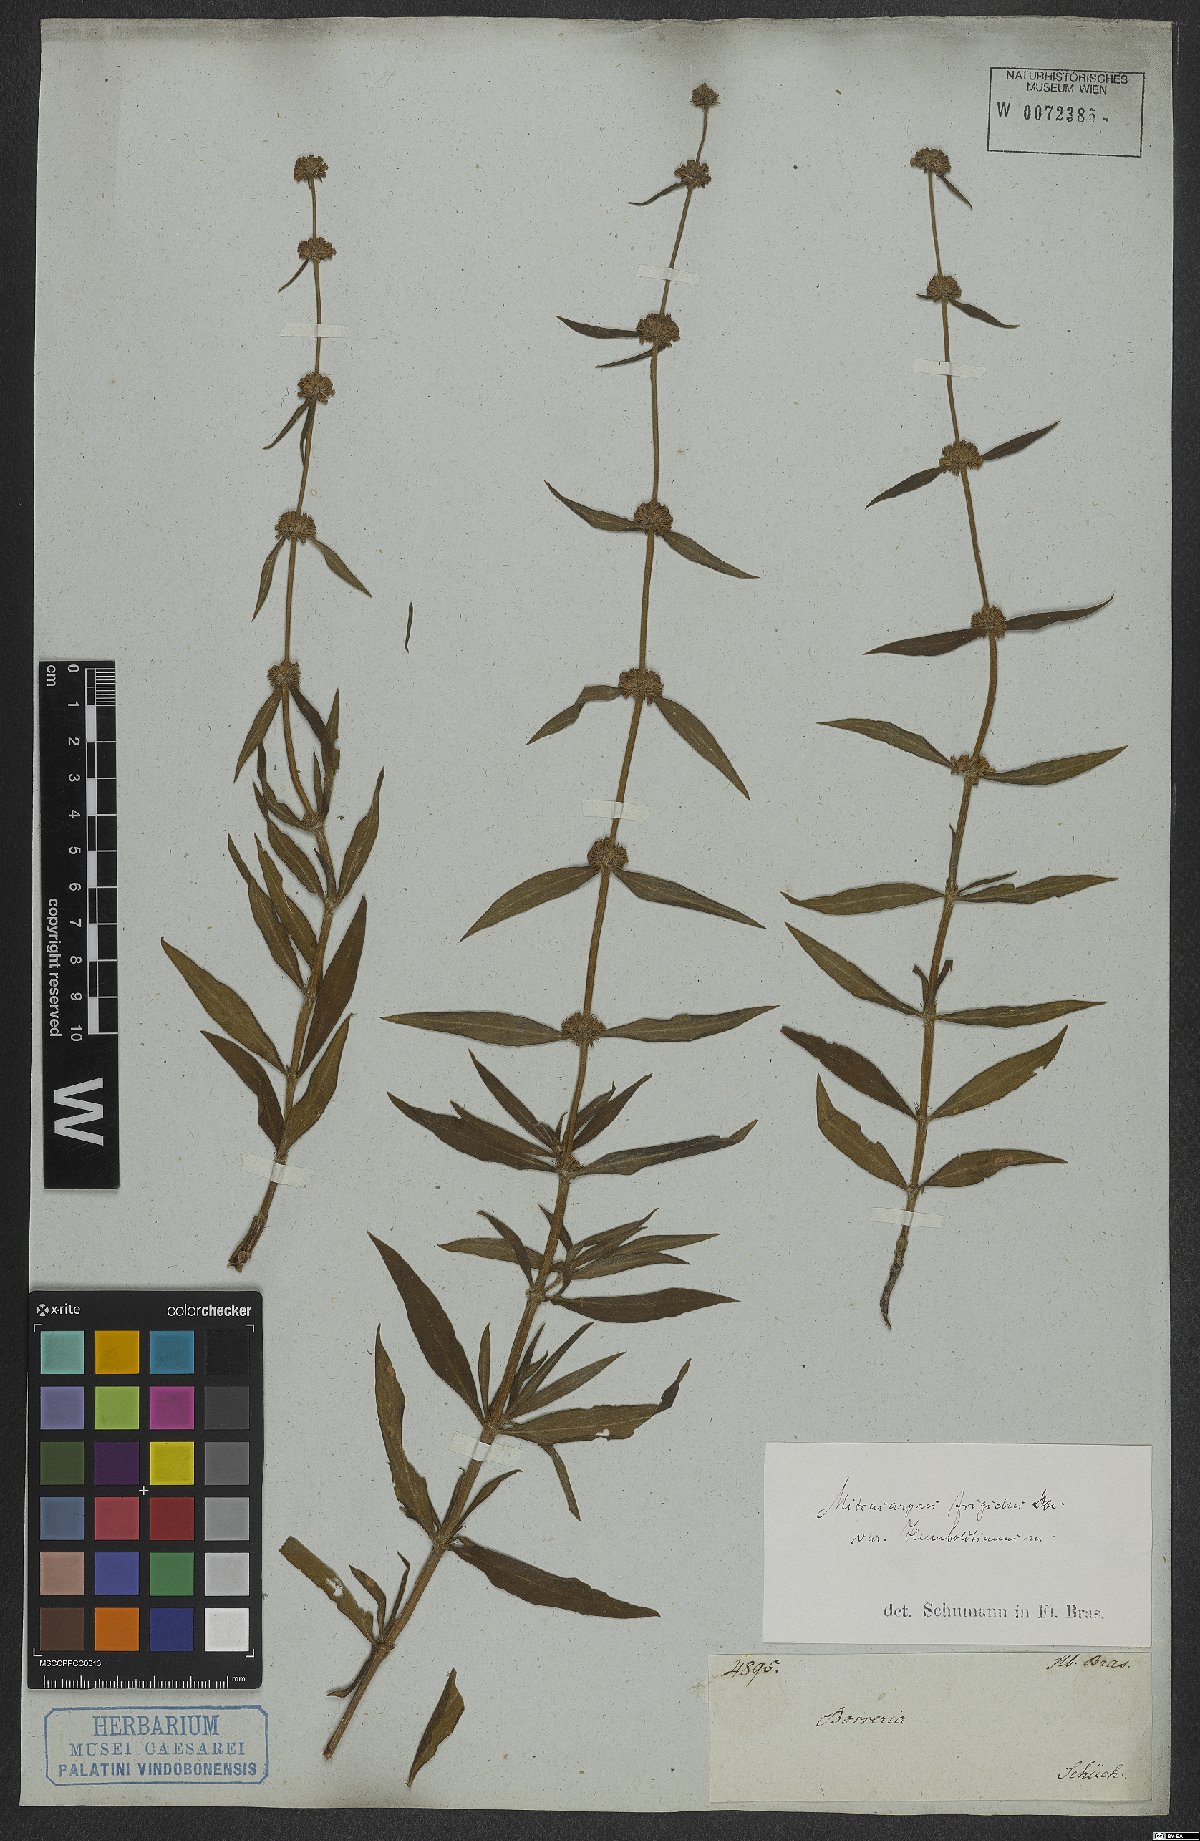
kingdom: Plantae
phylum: Tracheophyta
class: Magnoliopsida
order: Gentianales
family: Rubiaceae
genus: Mitracarpus
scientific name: Mitracarpus frigidus
